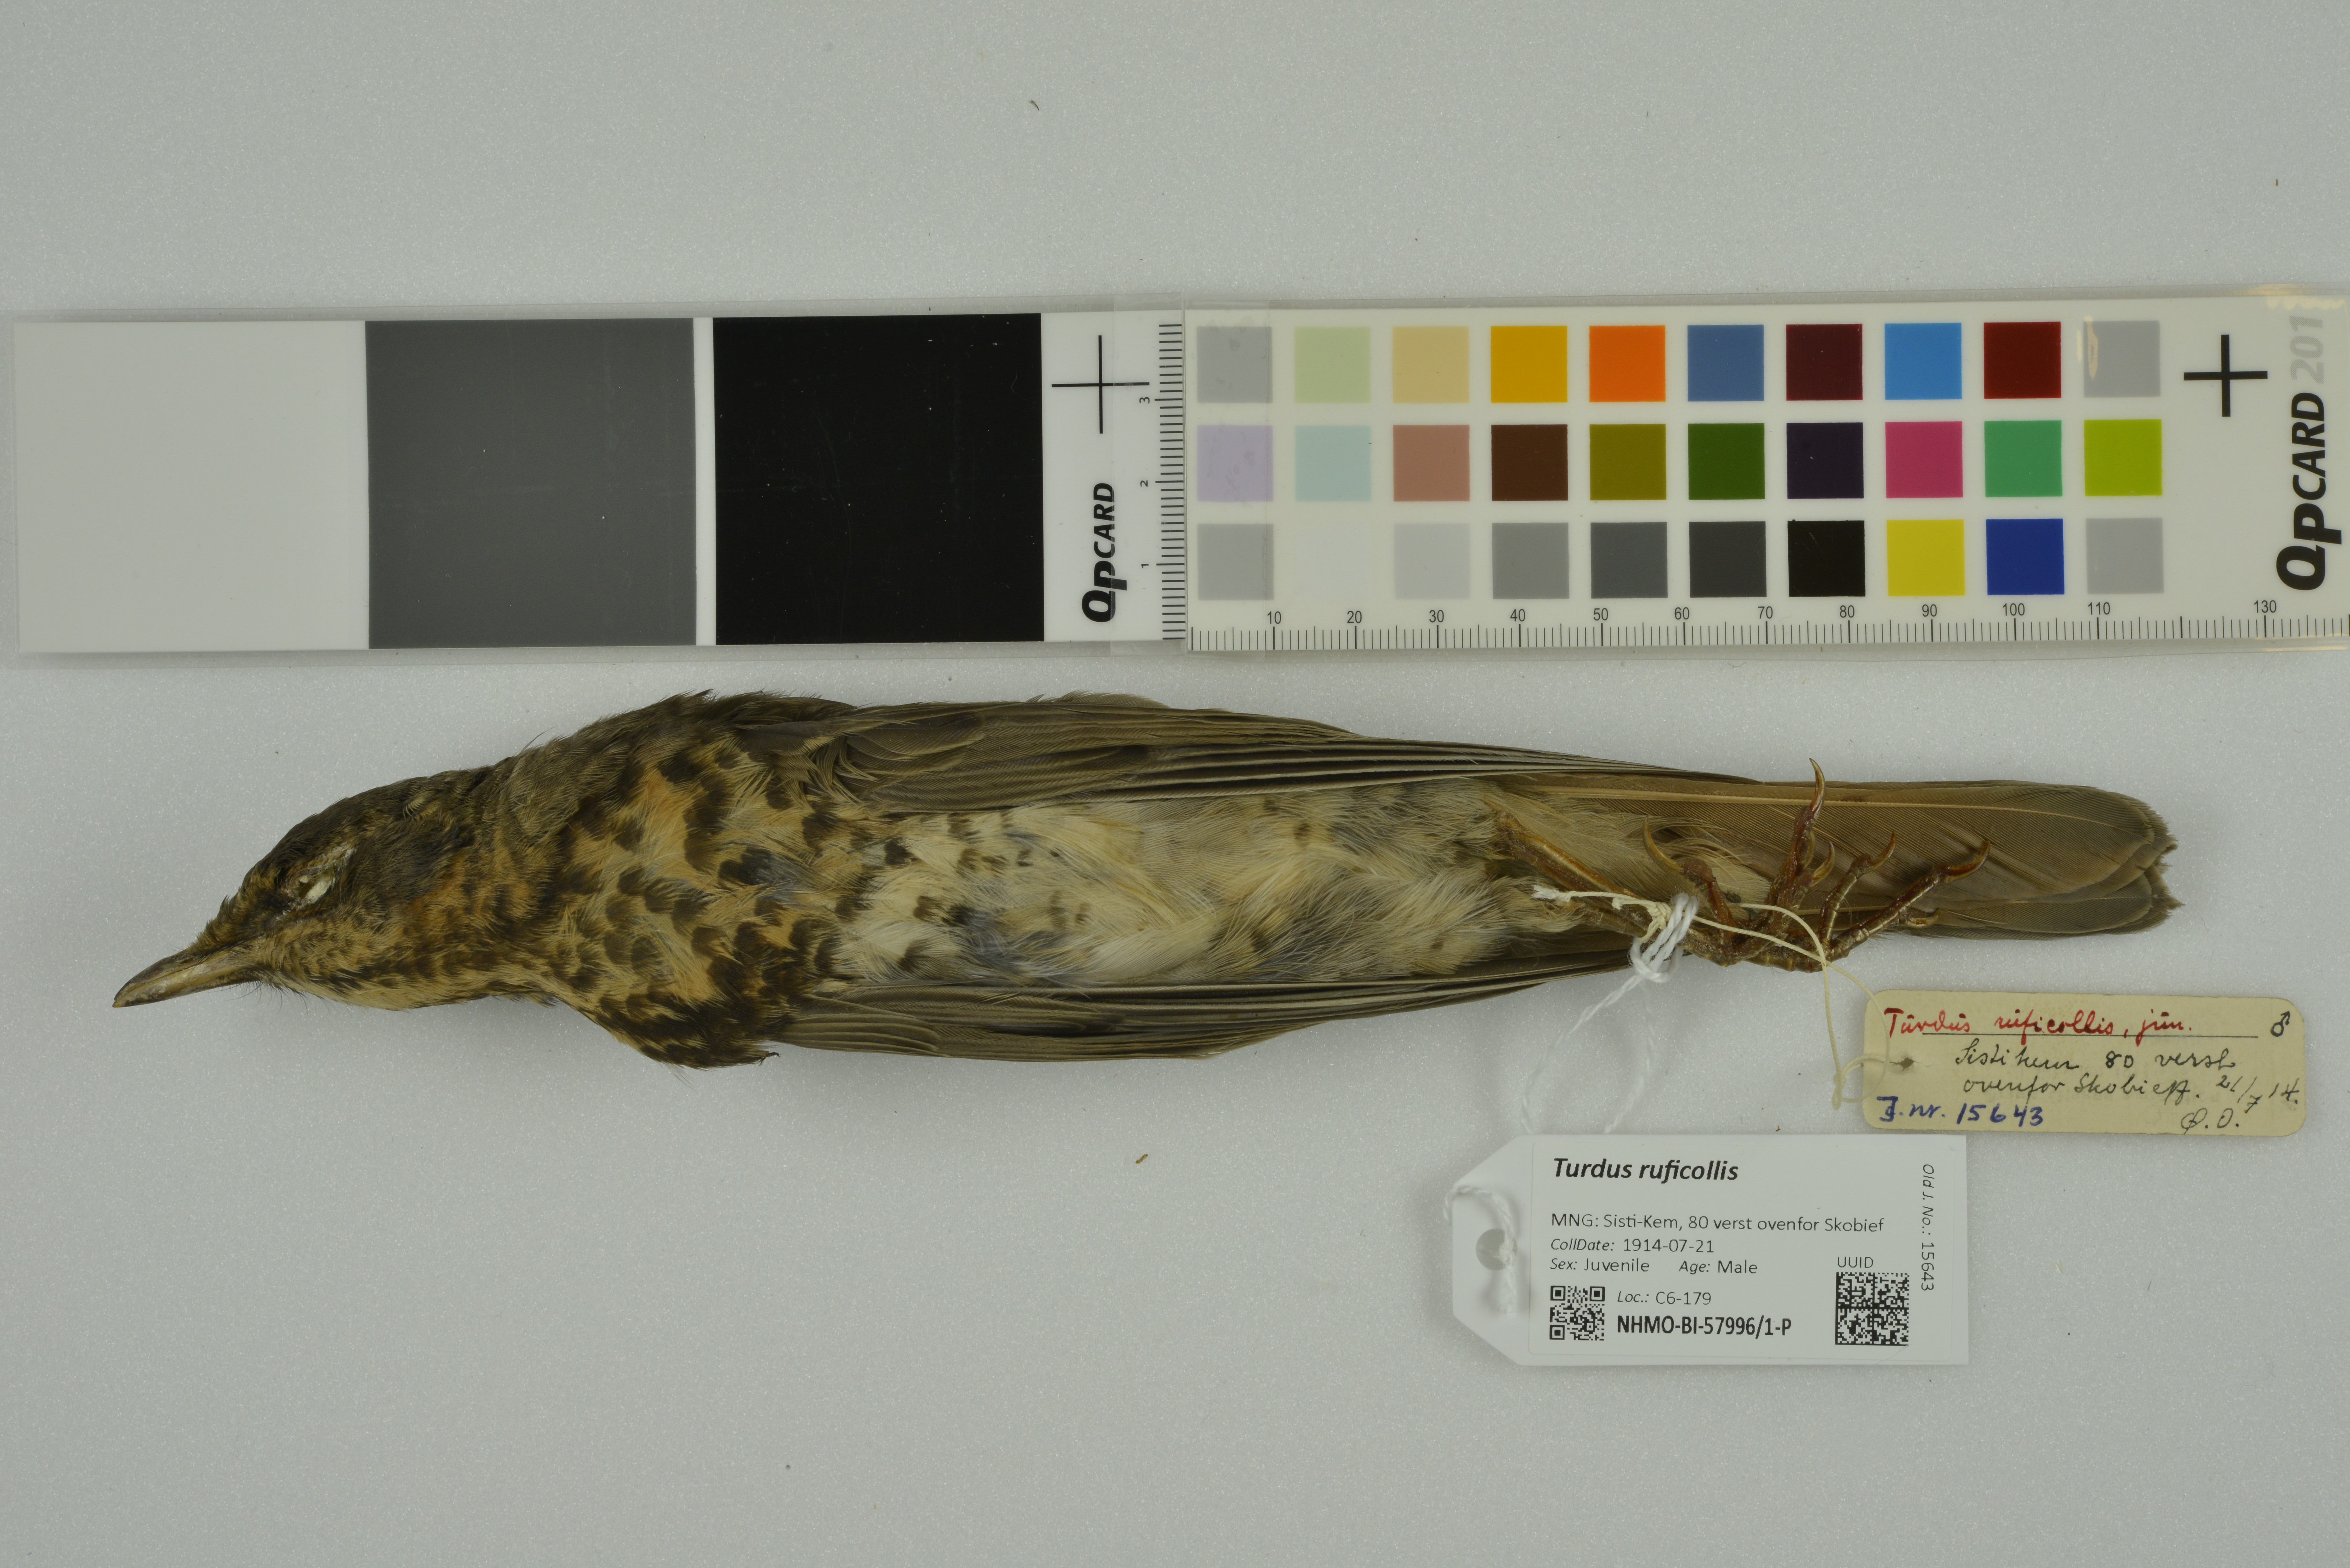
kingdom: Animalia
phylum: Chordata
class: Aves
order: Passeriformes
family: Turdidae
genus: Turdus
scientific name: Turdus ruficollis
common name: Red-throated thrush
